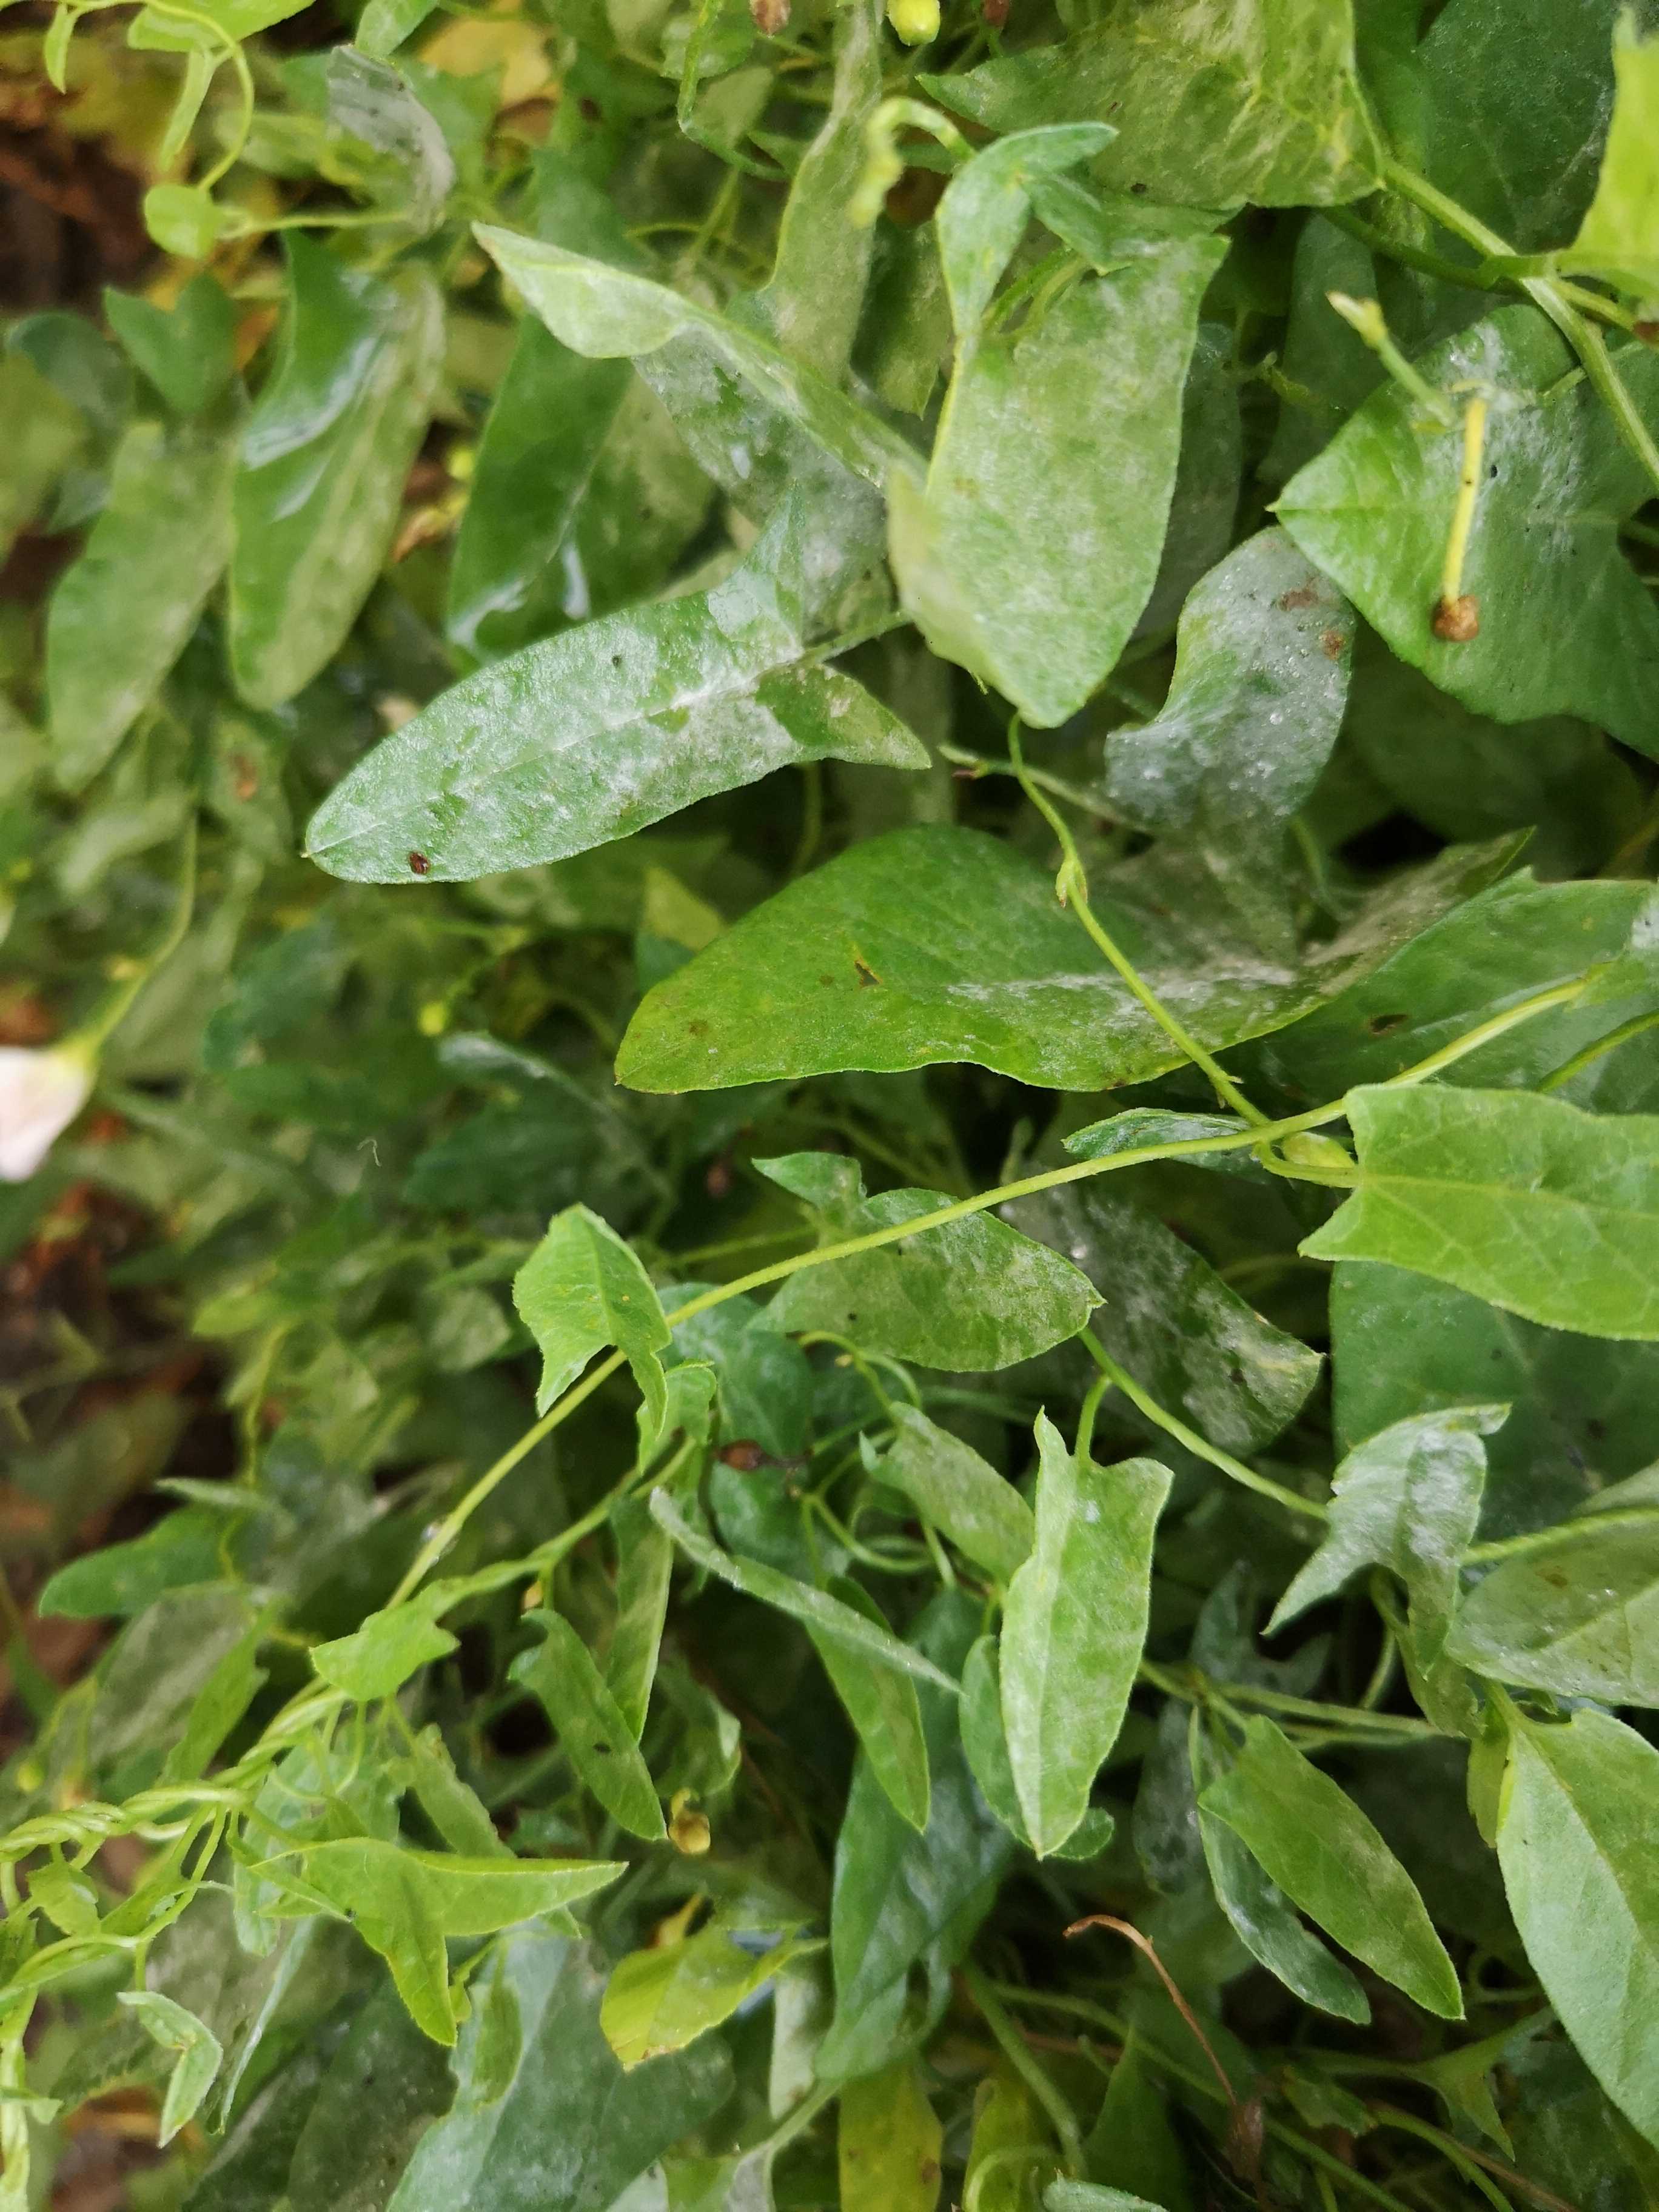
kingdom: Fungi
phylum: Ascomycota
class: Leotiomycetes
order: Helotiales
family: Erysiphaceae
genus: Erysiphe
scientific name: Erysiphe convolvuli
